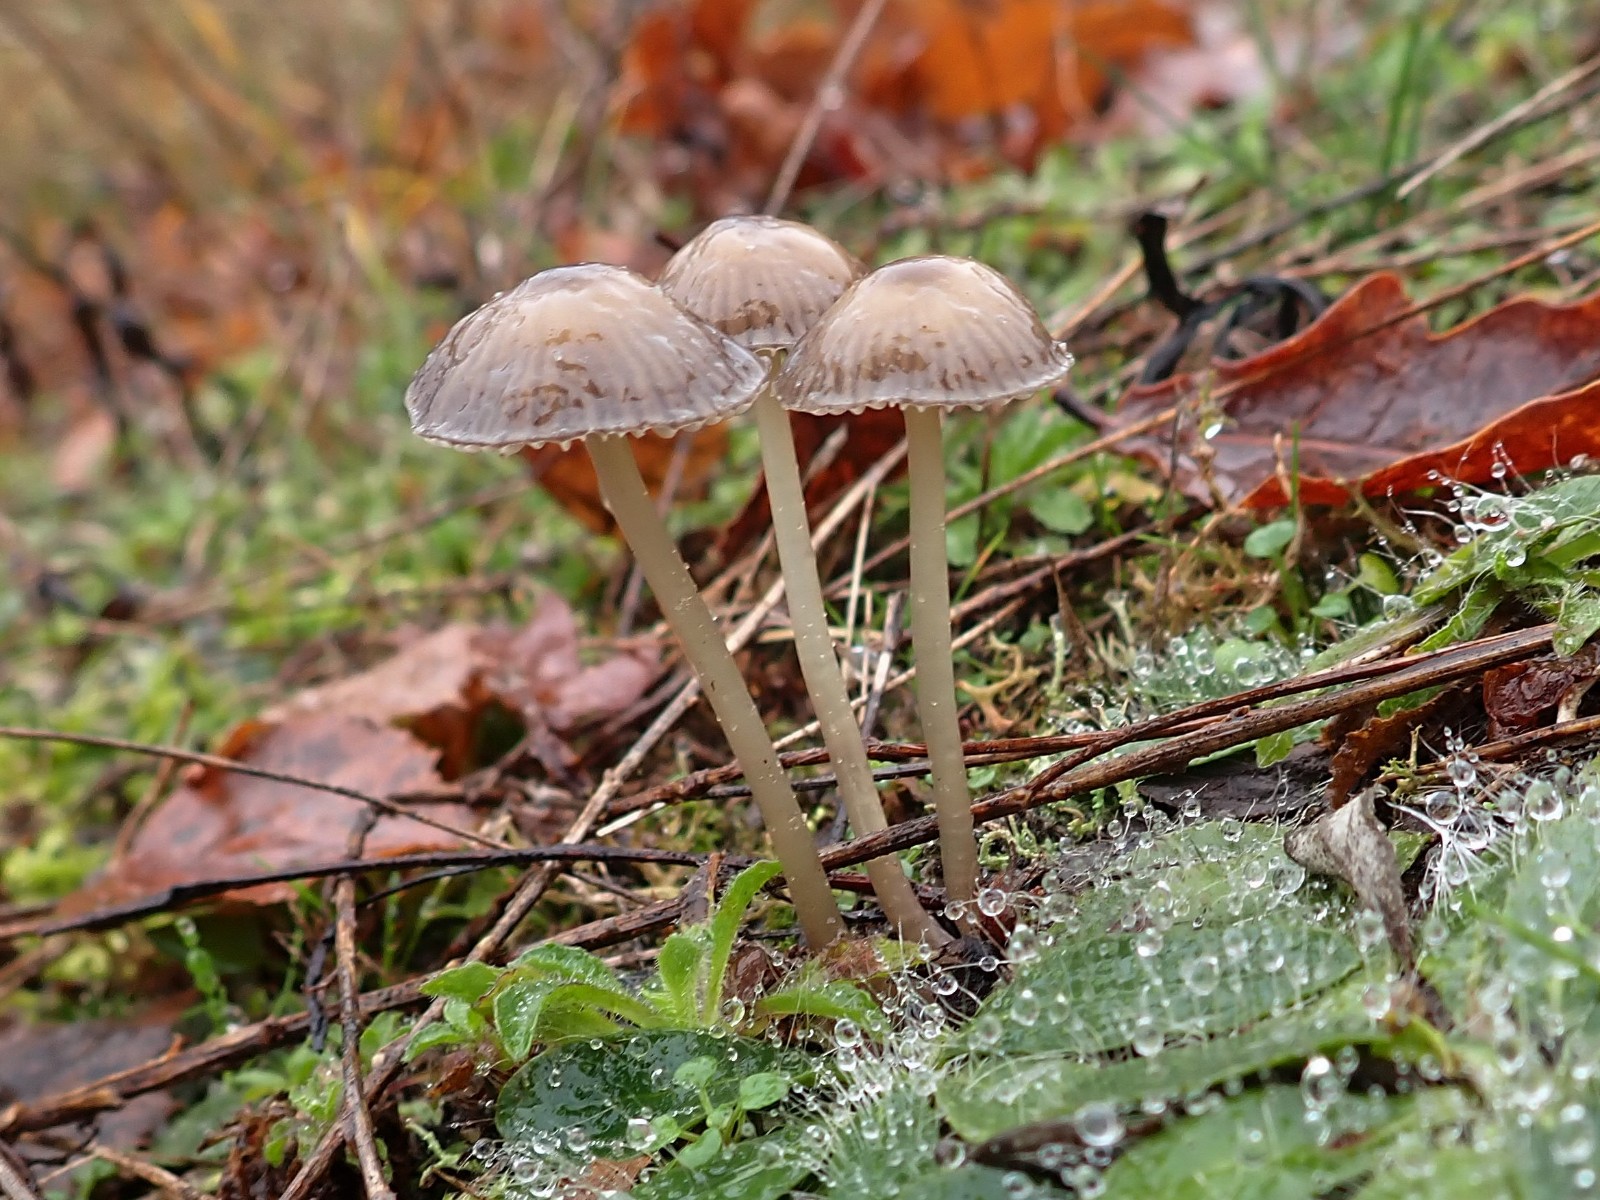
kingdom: Fungi
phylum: Basidiomycota
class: Agaricomycetes
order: Agaricales
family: Mycenaceae
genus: Mycena
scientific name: Mycena clavicularis
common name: fyrre-huesvamp
